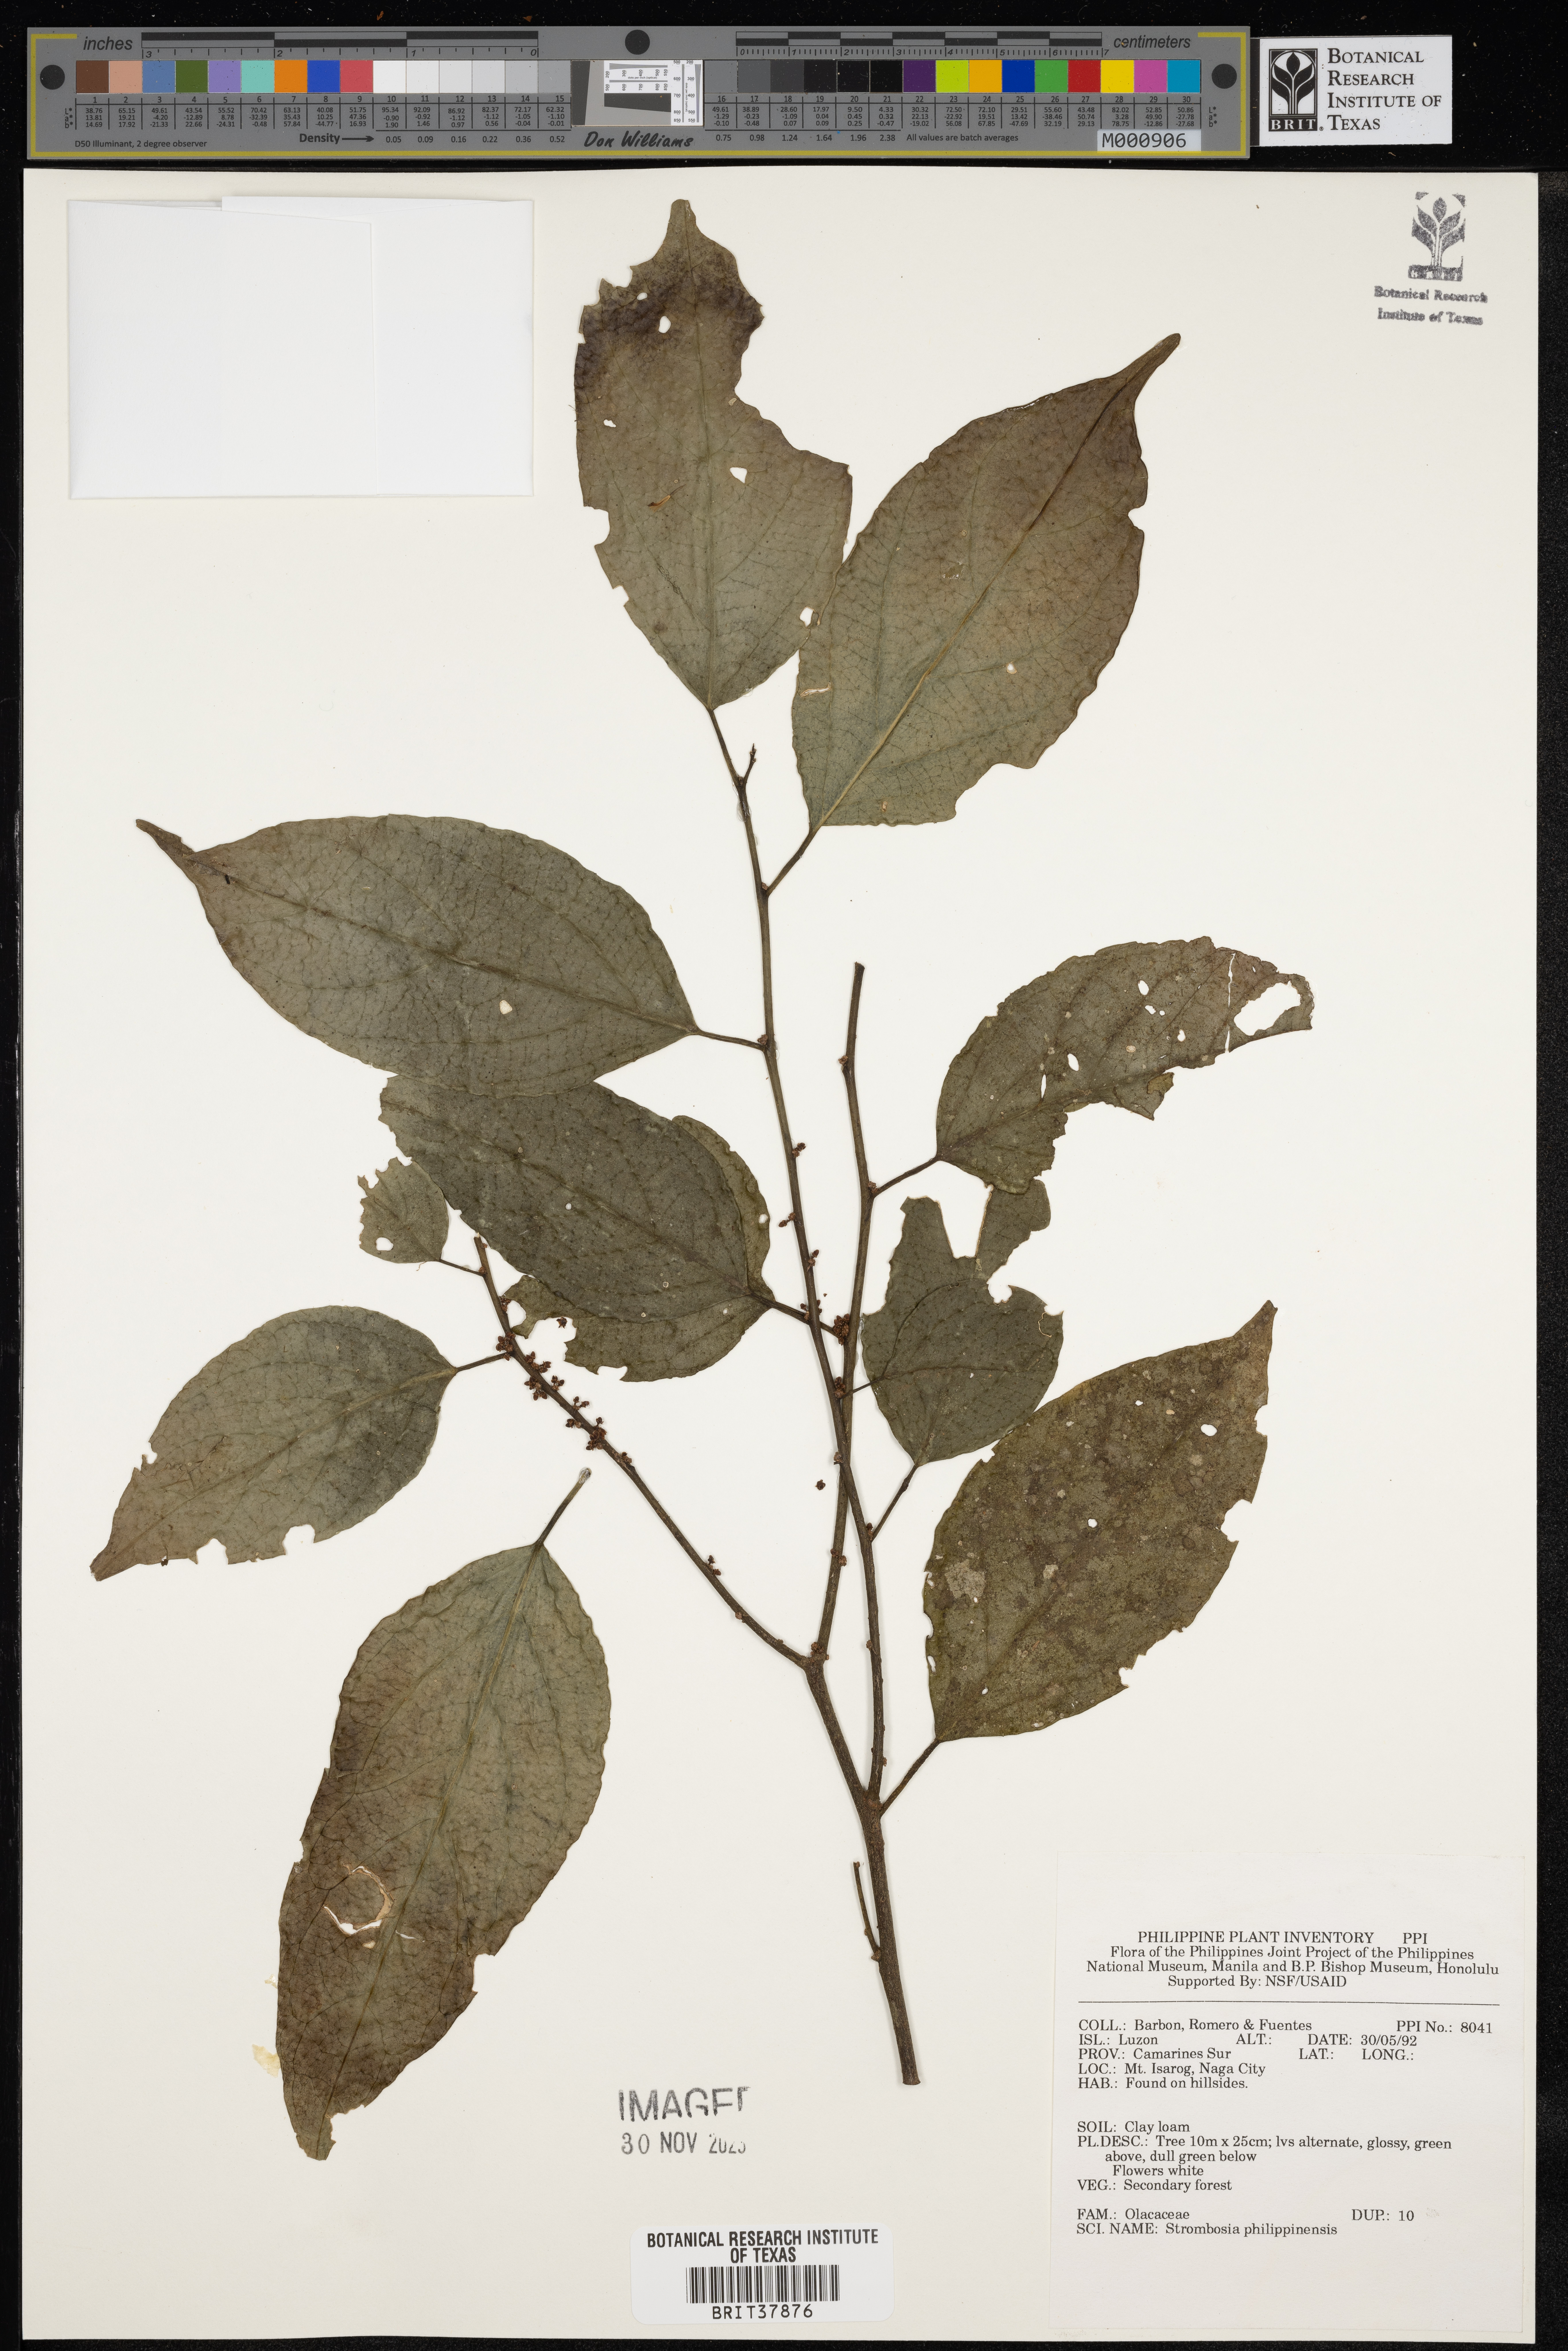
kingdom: Plantae
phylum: Tracheophyta
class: Magnoliopsida
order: Santalales
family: Strombosiaceae
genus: Strombosia
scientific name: Strombosia philippinensis
